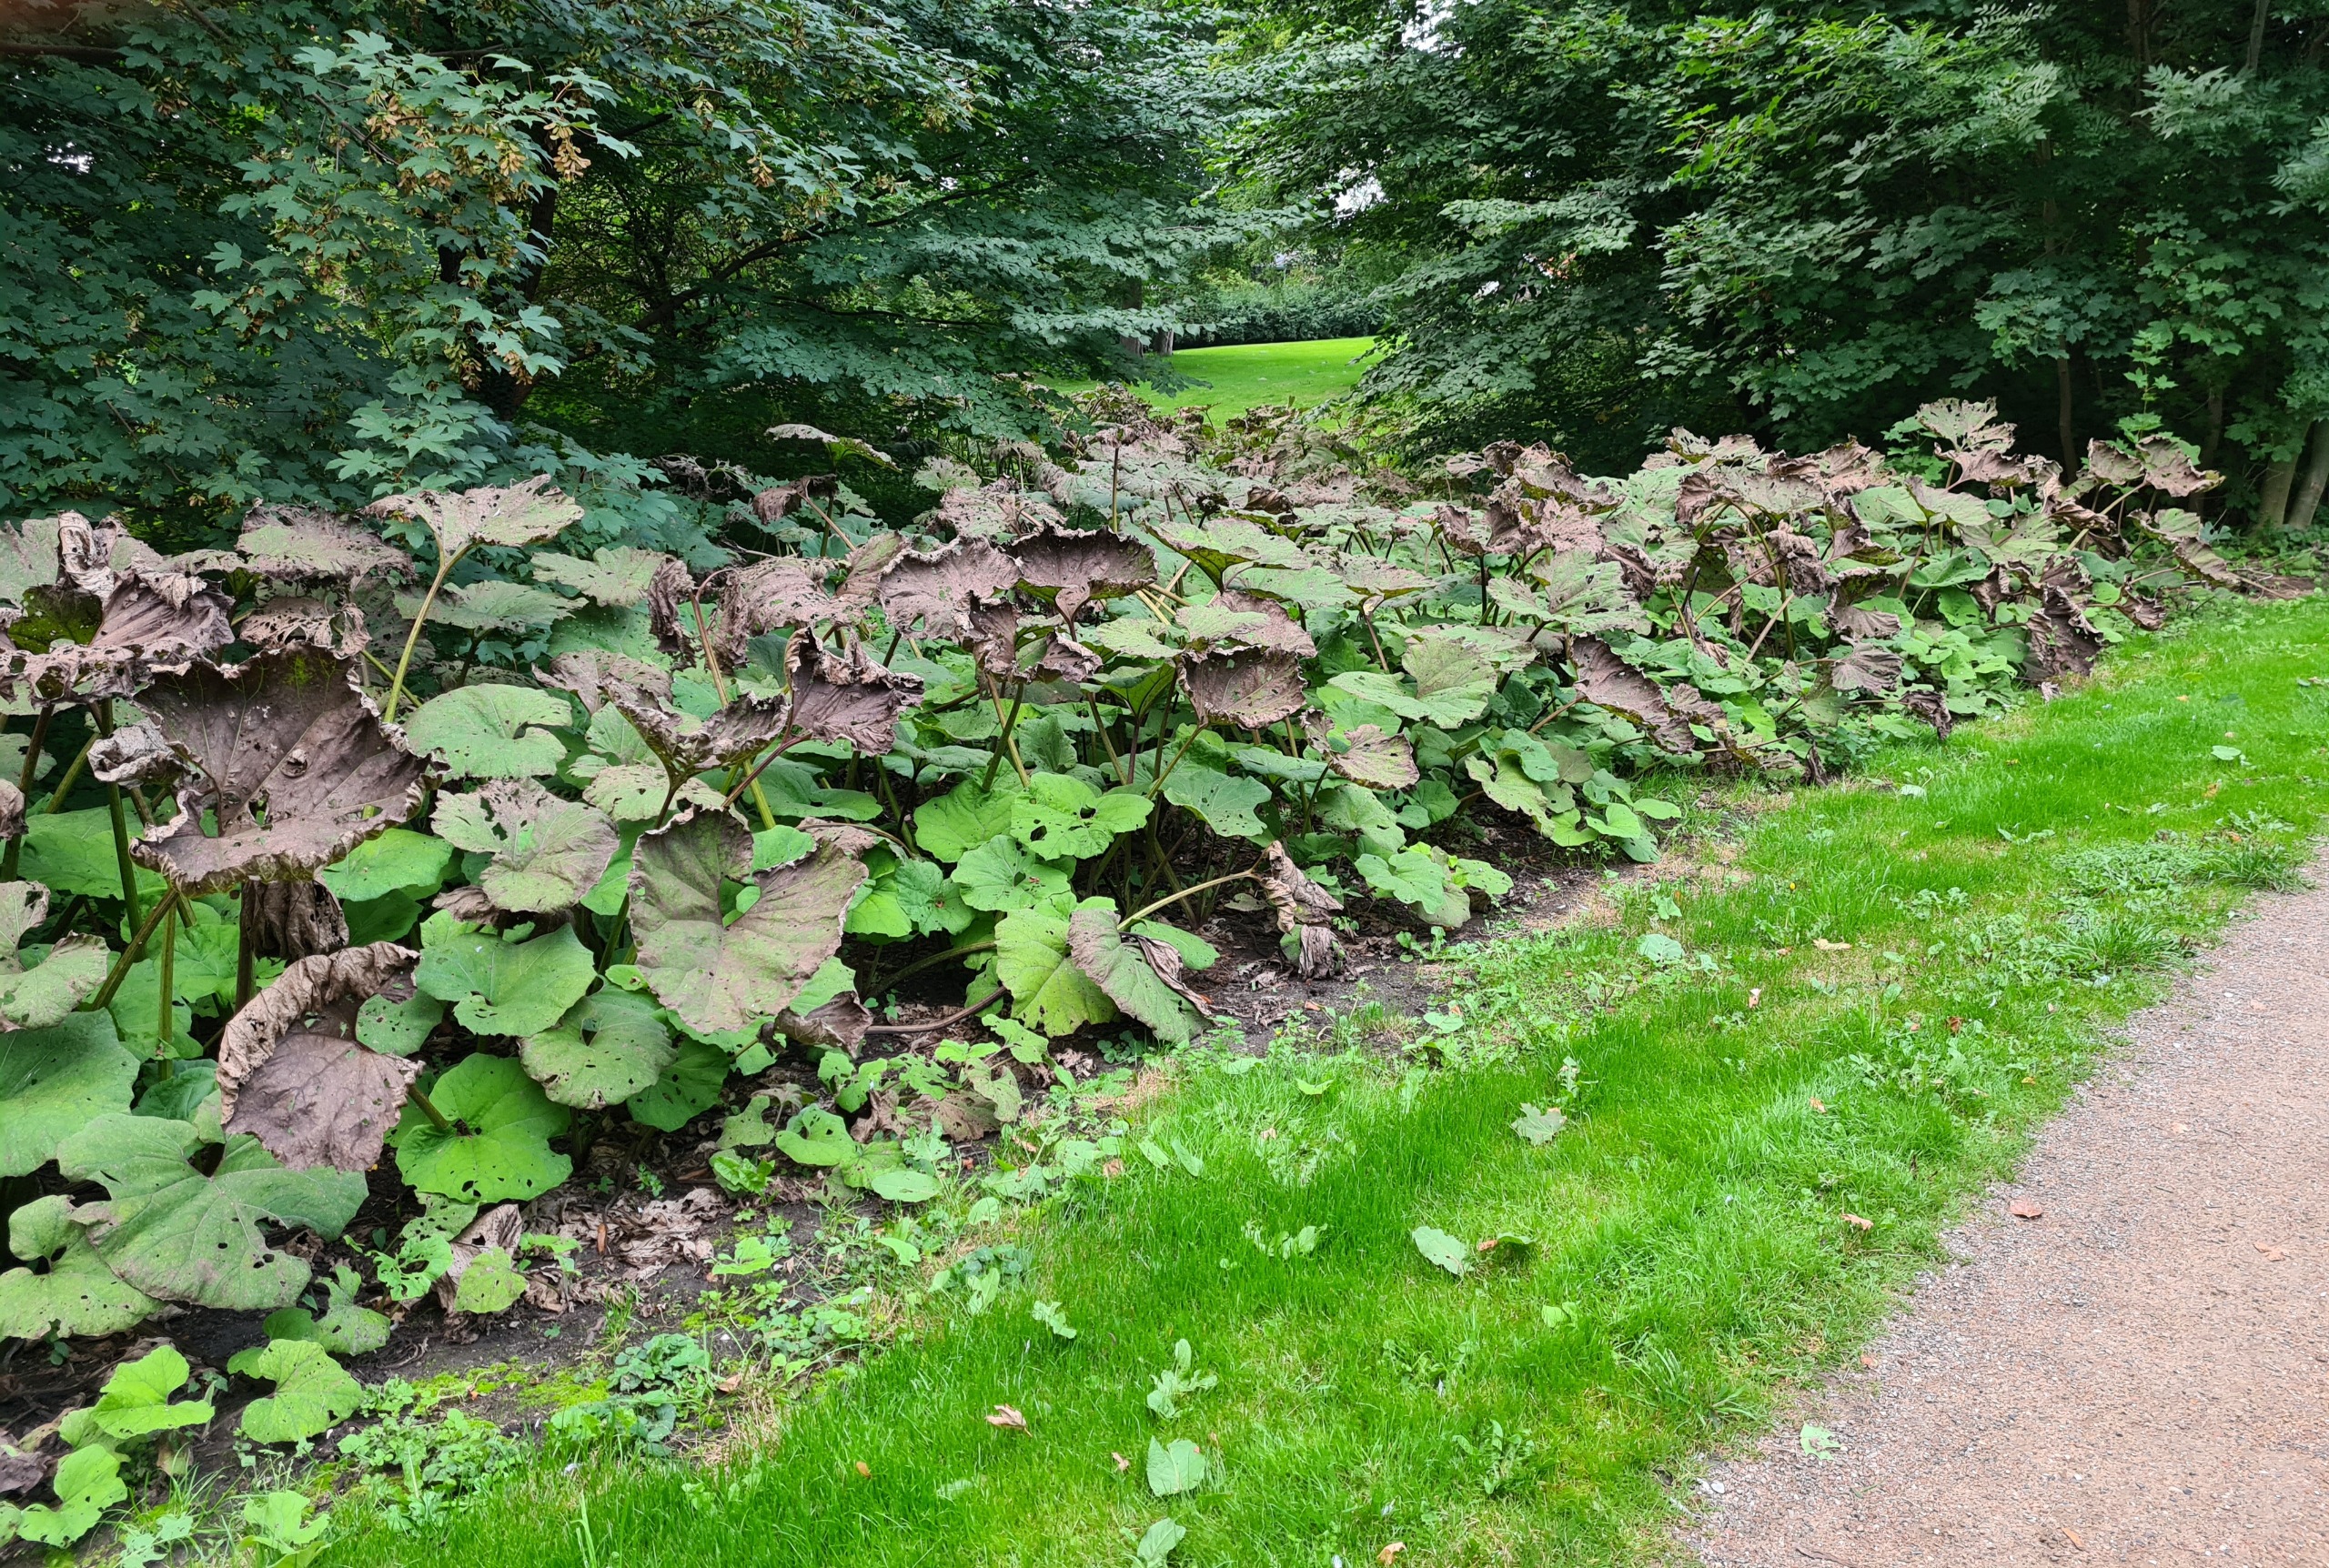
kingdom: Plantae
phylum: Tracheophyta
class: Magnoliopsida
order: Asterales
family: Asteraceae
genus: Petasites
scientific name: Petasites hybridus
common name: Rød hestehov
